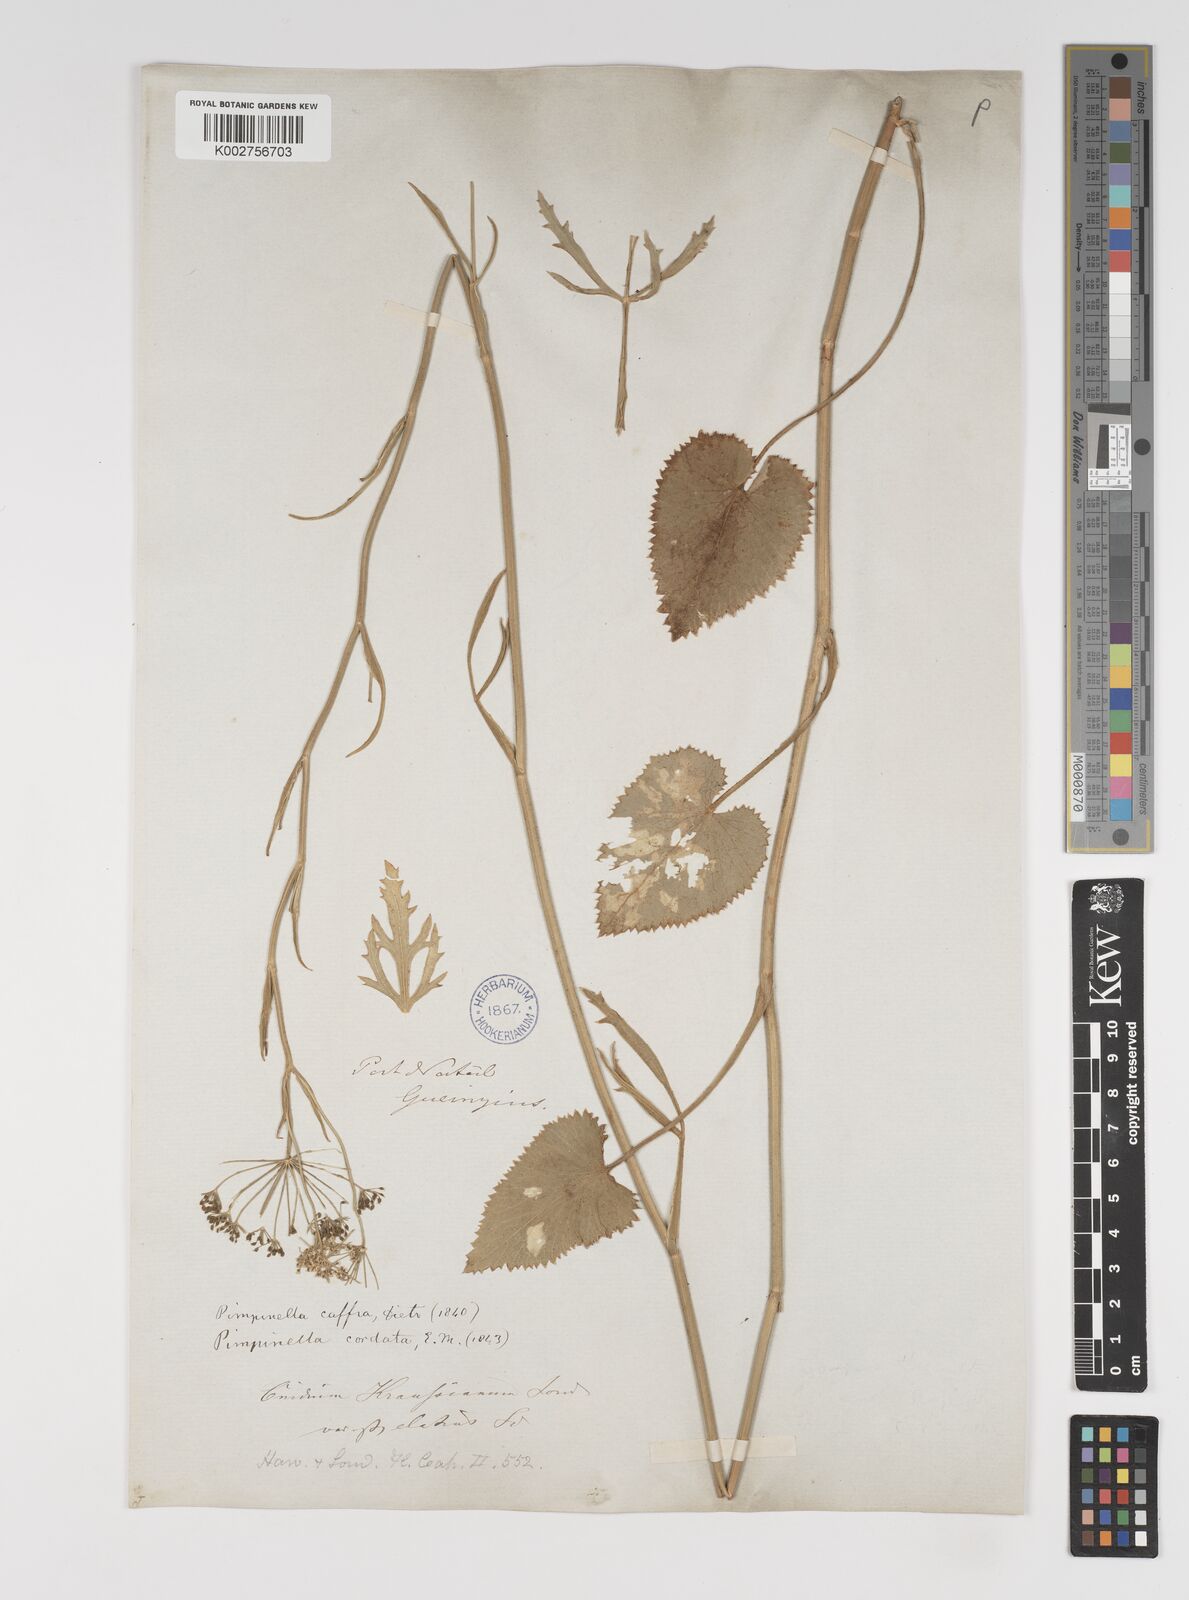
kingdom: Plantae
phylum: Tracheophyta
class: Magnoliopsida
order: Apiales
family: Apiaceae
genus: Pimpinella
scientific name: Pimpinella
